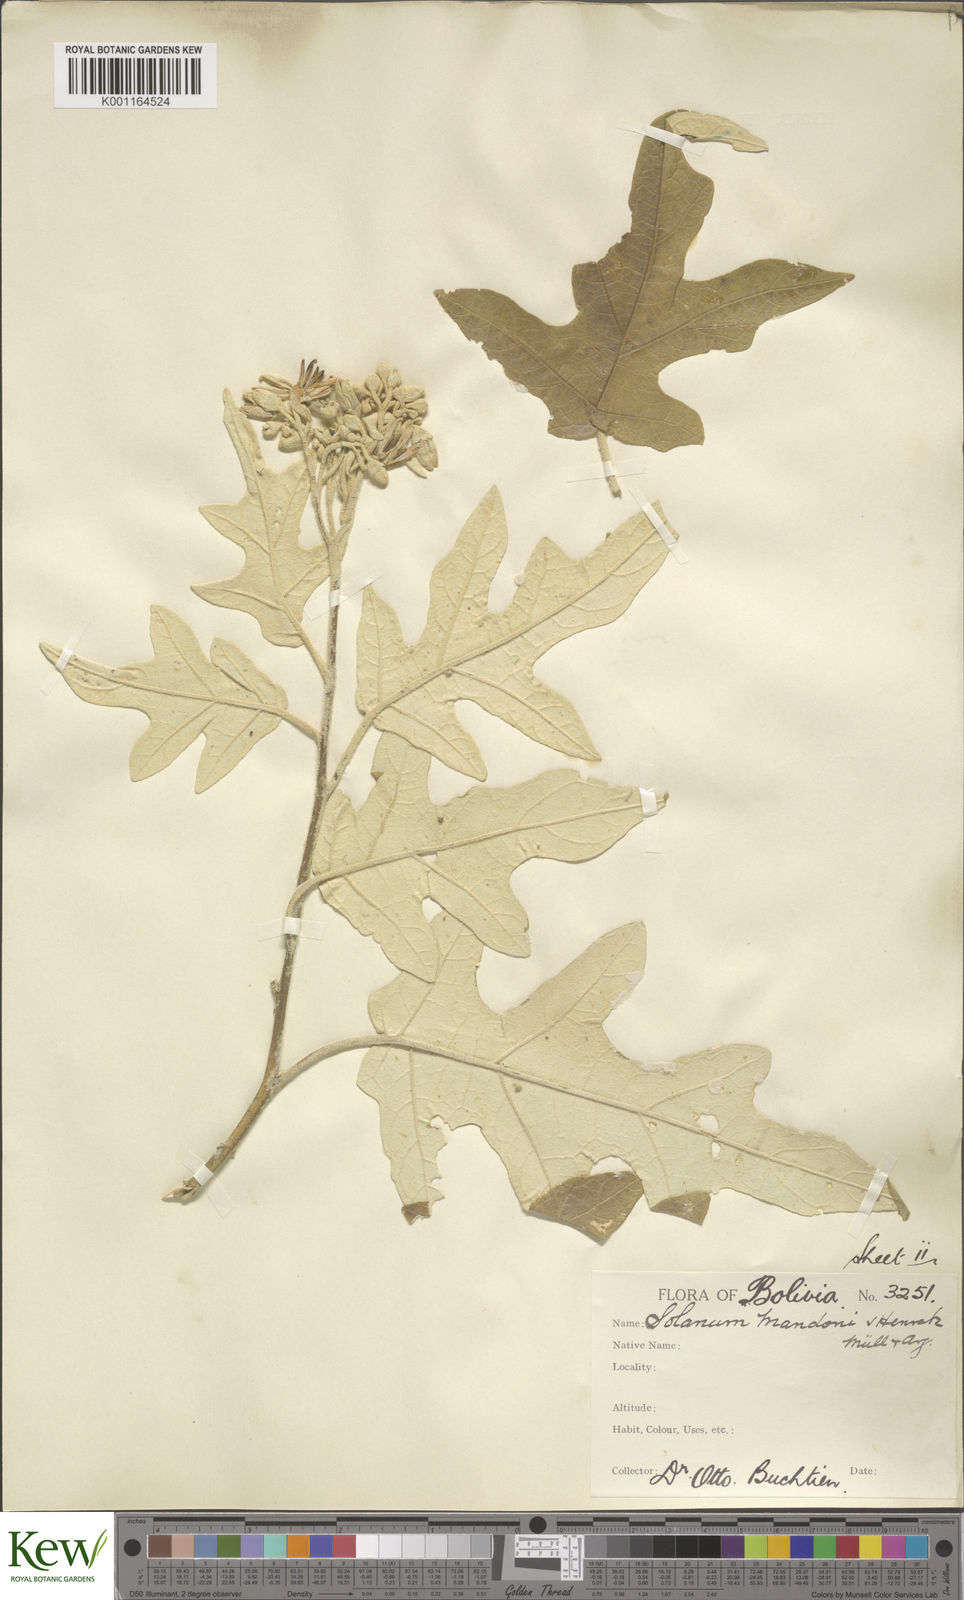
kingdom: Plantae
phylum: Tracheophyta
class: Magnoliopsida
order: Solanales
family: Solanaceae
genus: Solanum
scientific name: Solanum albidum
